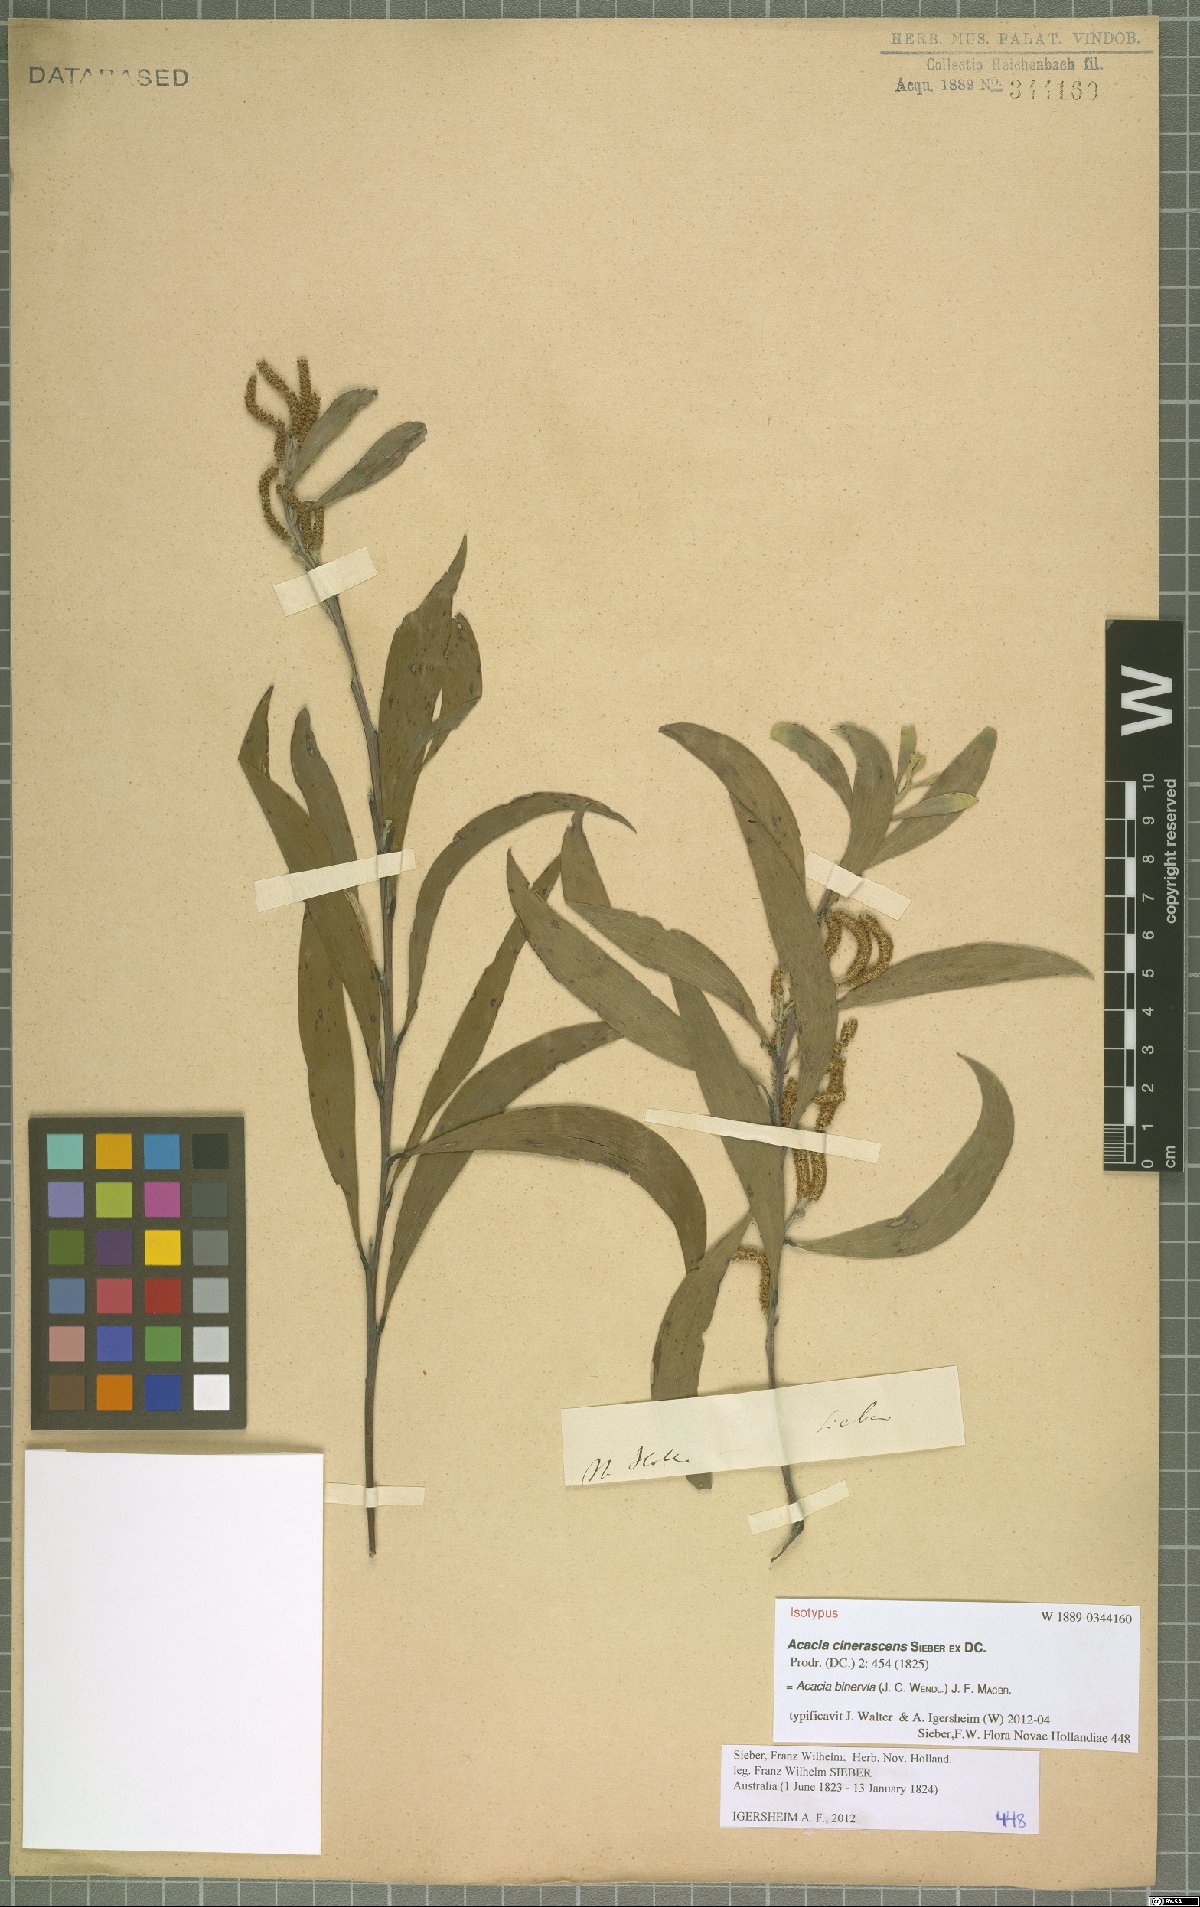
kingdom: Plantae
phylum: Tracheophyta
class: Magnoliopsida
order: Fabales
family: Fabaceae
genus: Acacia
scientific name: Acacia binervia
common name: Coast myall
